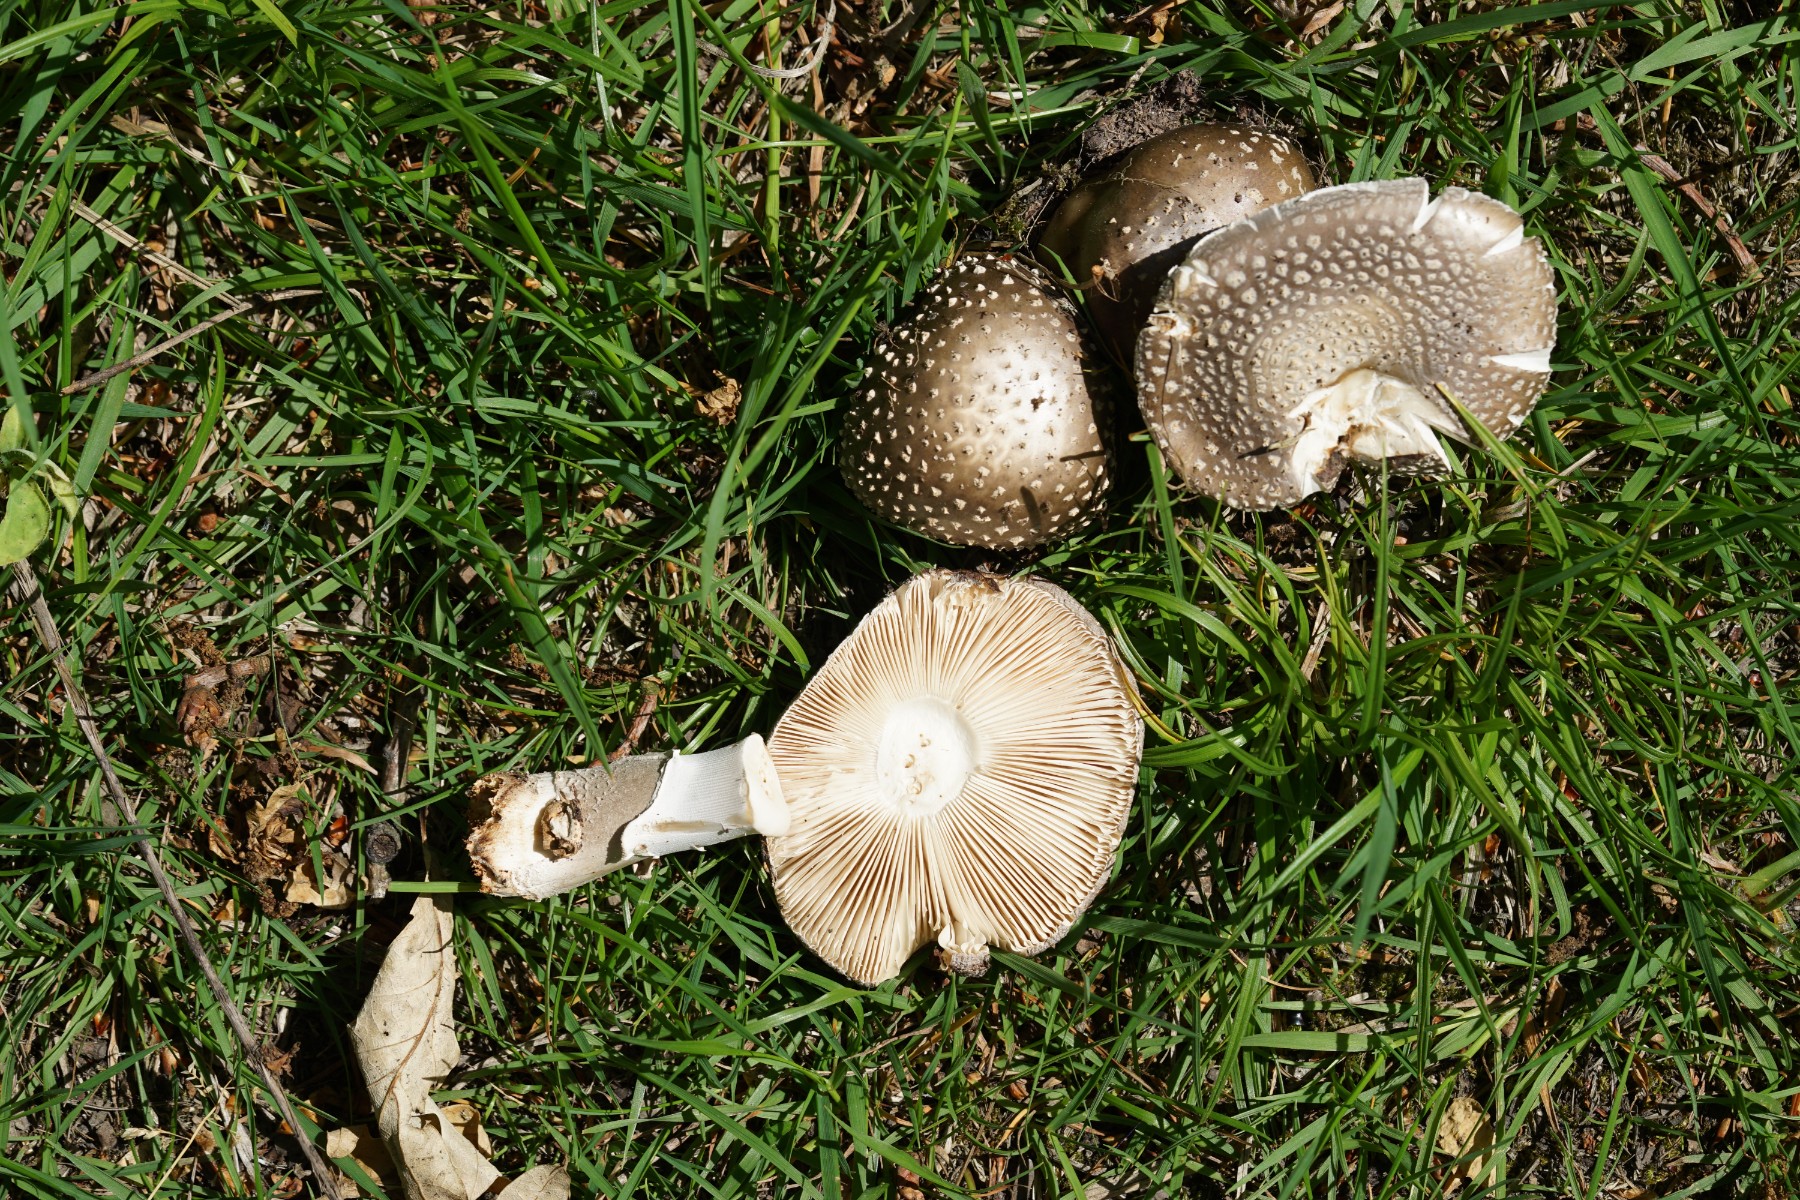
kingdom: Fungi
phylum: Basidiomycota
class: Agaricomycetes
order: Agaricales
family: Amanitaceae
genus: Amanita
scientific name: Amanita
